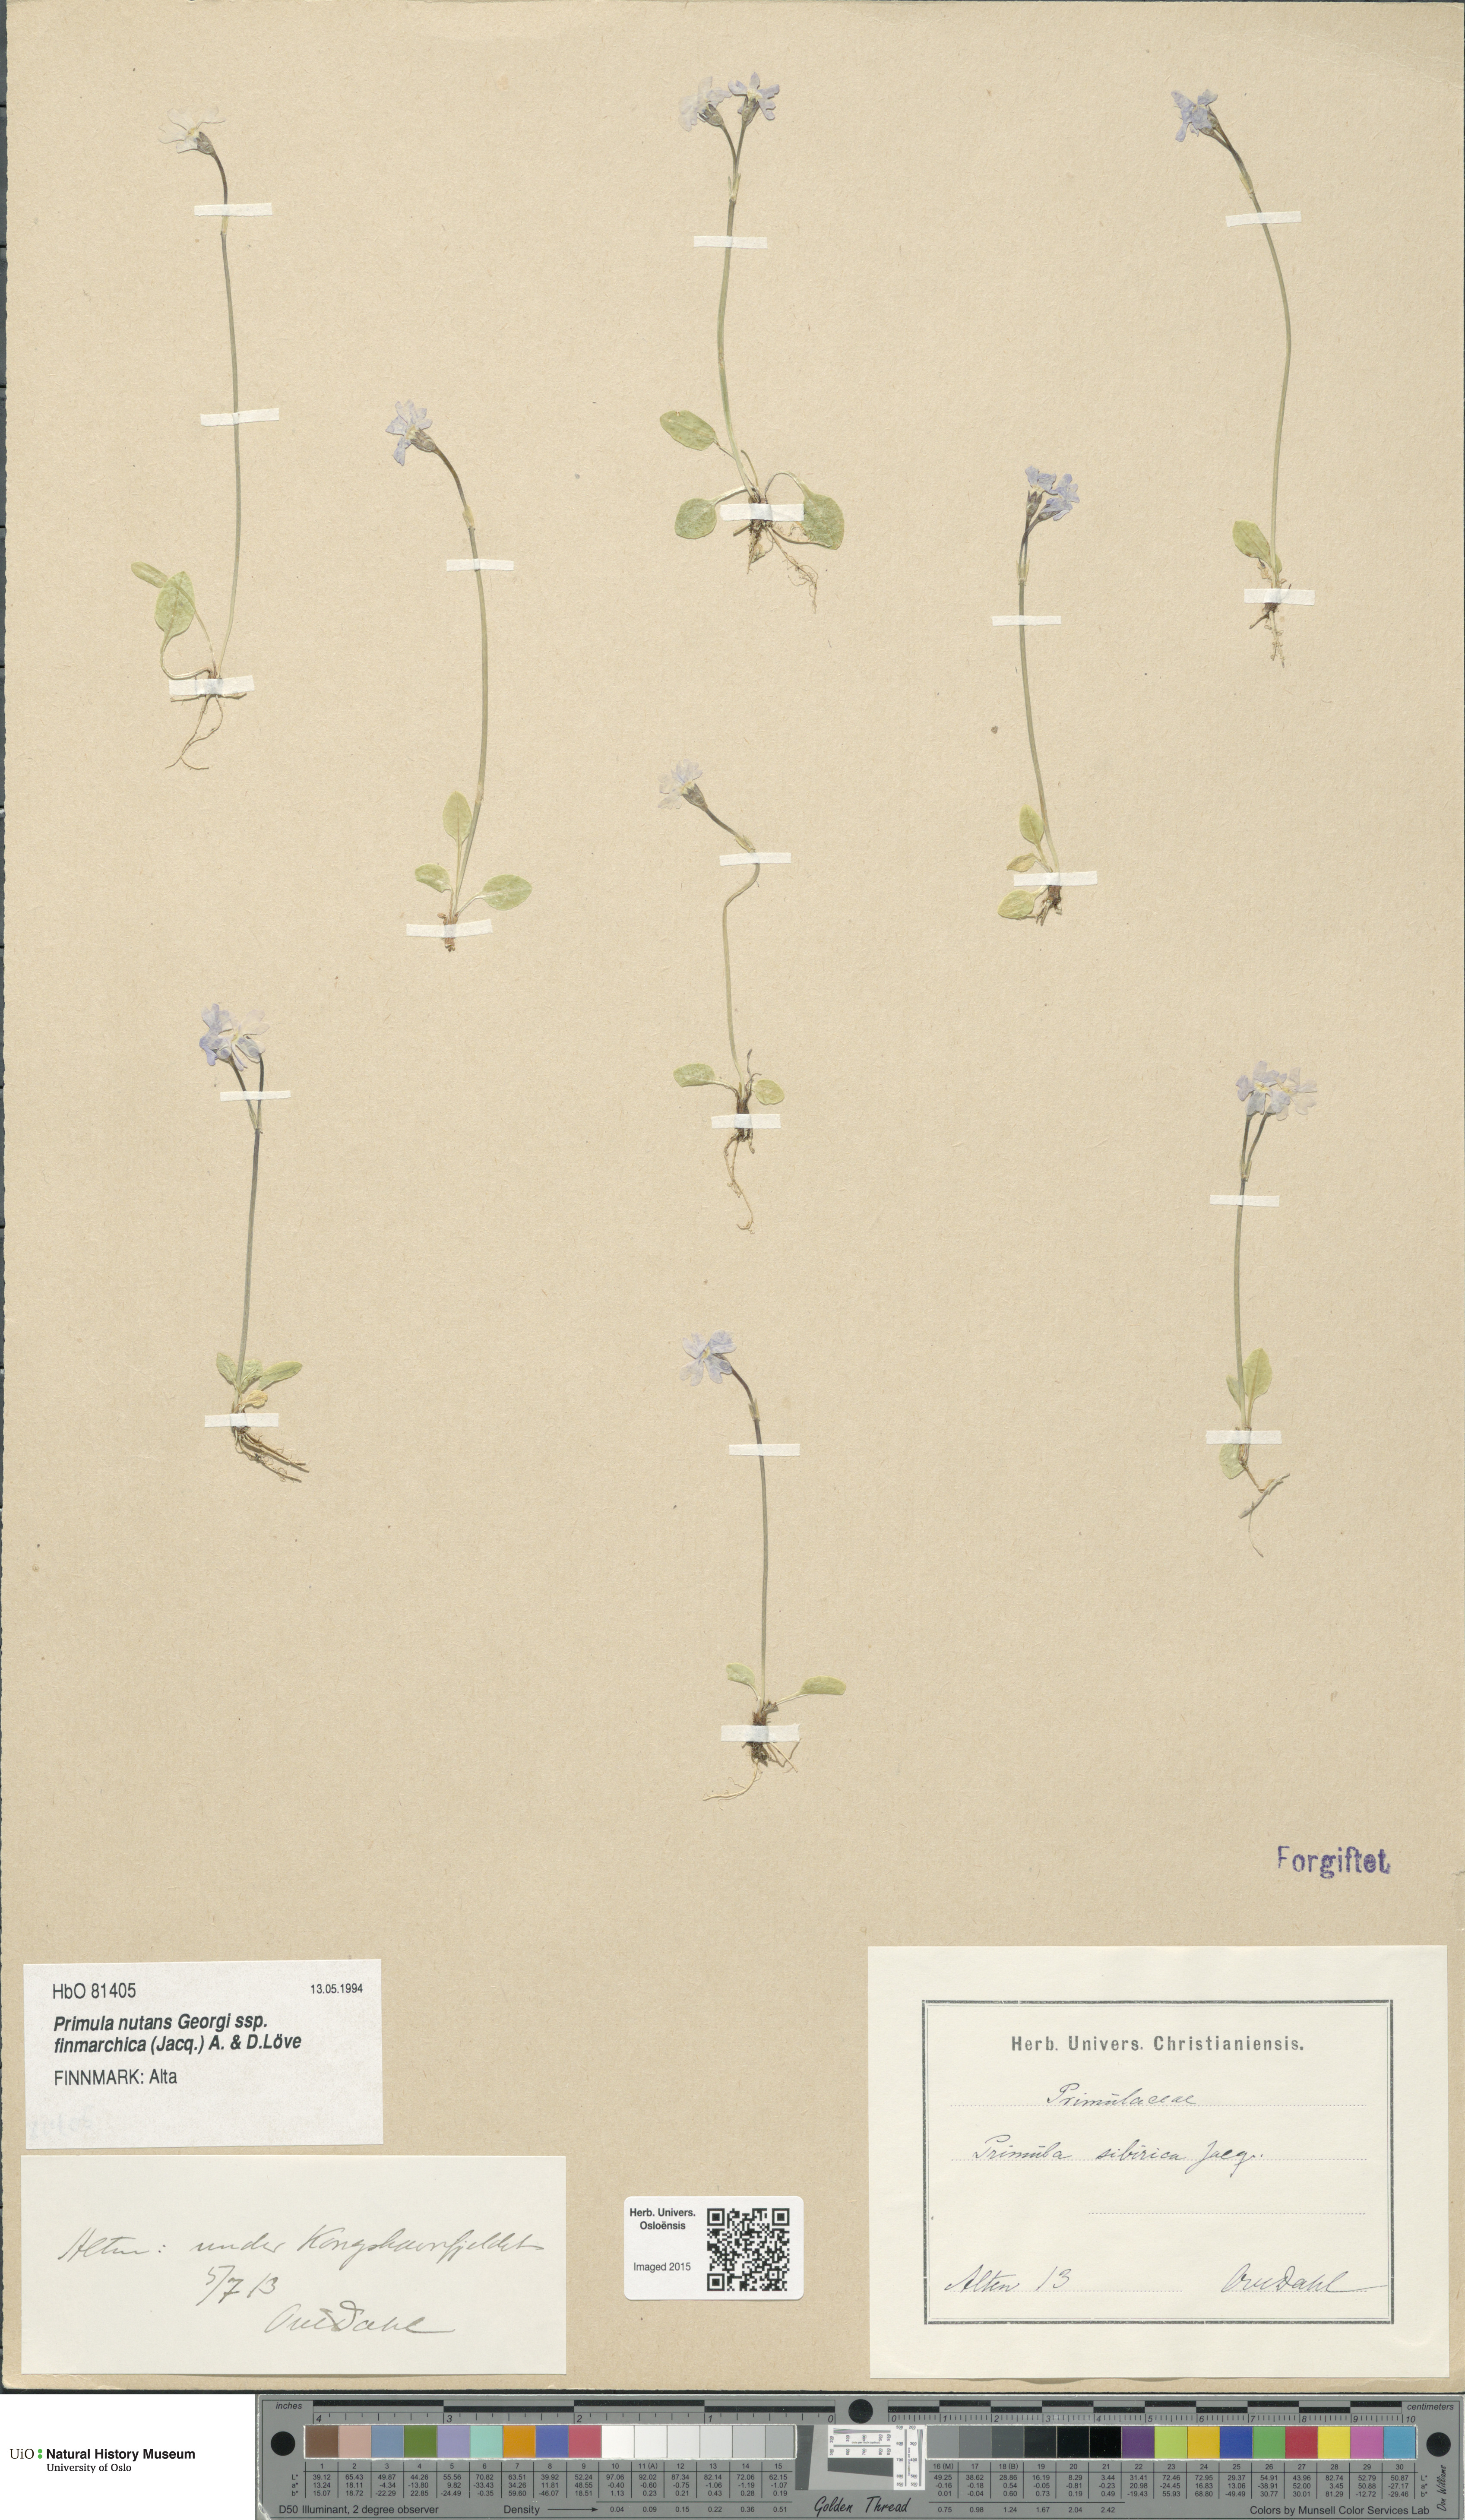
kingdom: Plantae
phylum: Tracheophyta
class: Magnoliopsida
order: Ericales
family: Primulaceae
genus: Primula
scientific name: Primula nutans
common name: Siberian primrose
